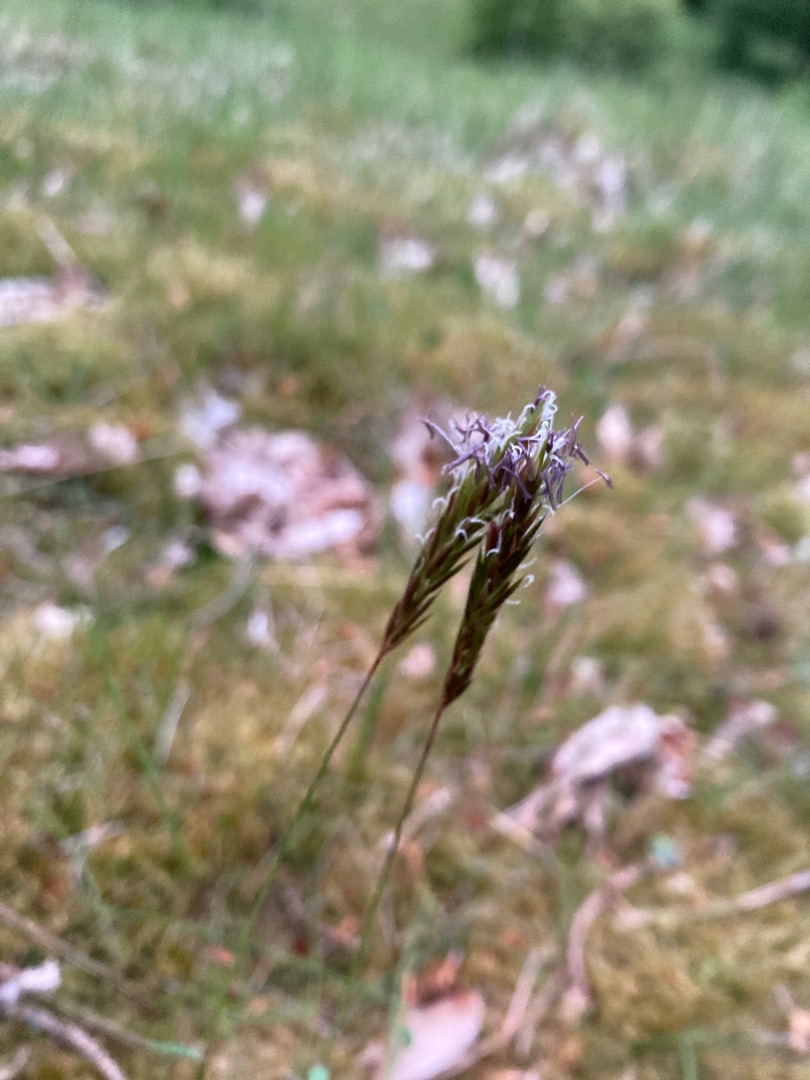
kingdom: Plantae
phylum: Tracheophyta
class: Liliopsida
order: Poales
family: Poaceae
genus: Anthoxanthum
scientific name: Anthoxanthum odoratum
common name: Vellugtende gulaks
